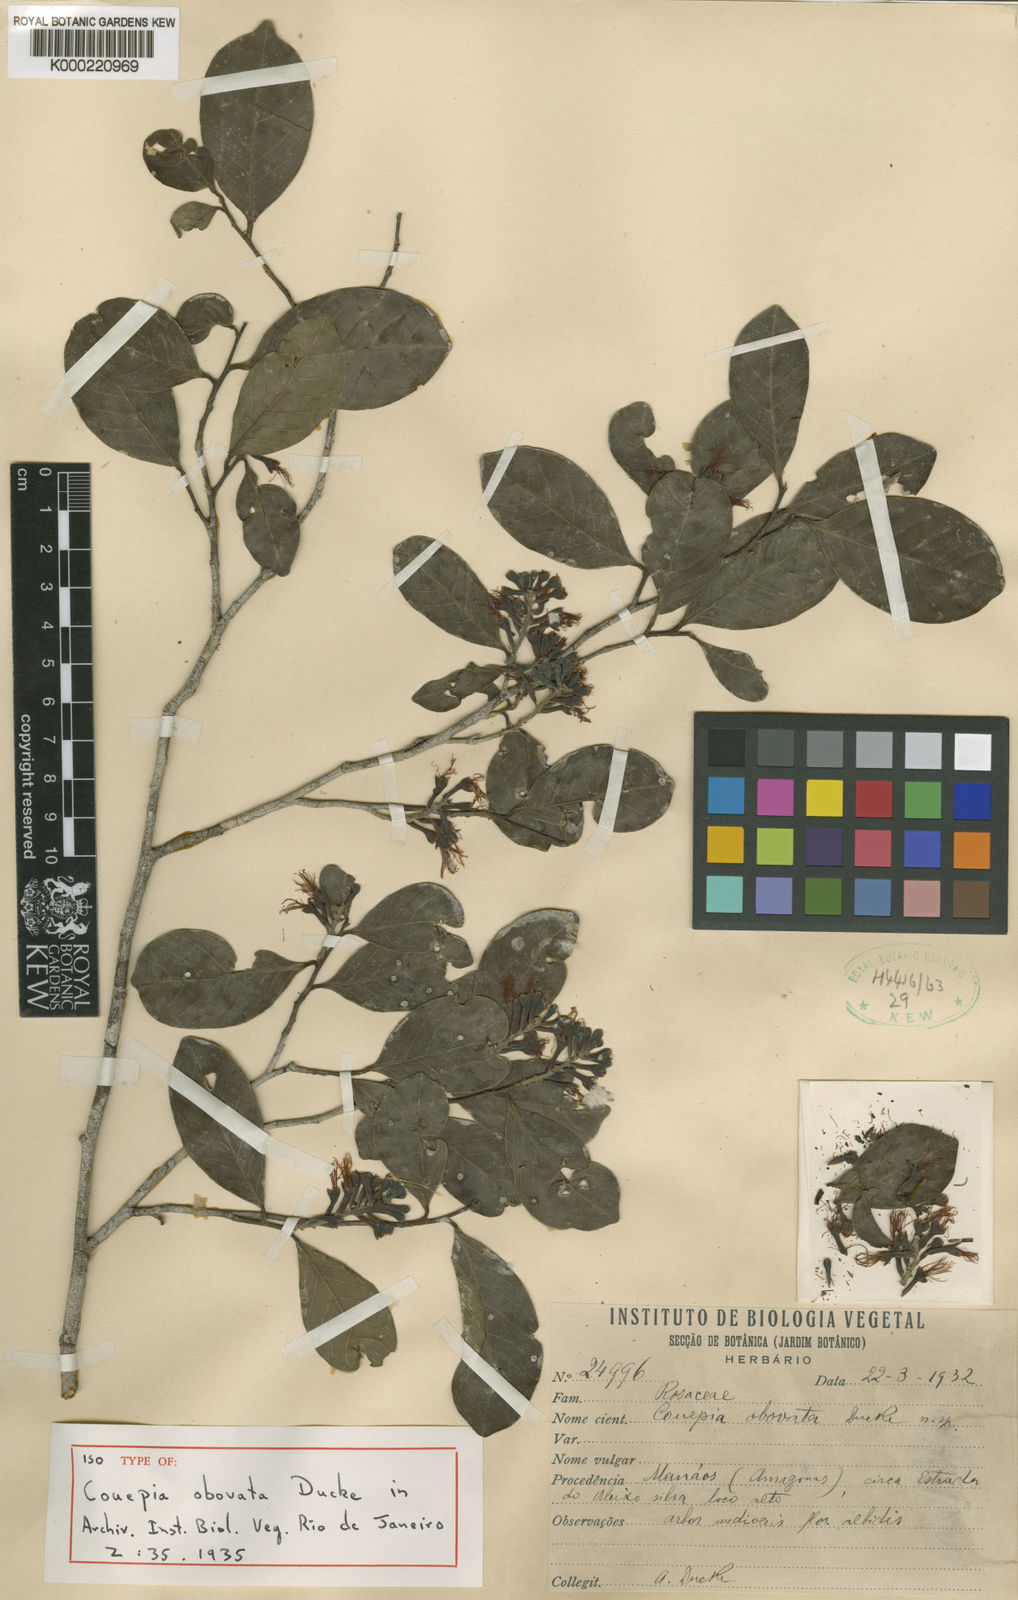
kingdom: Plantae
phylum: Tracheophyta
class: Magnoliopsida
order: Malpighiales
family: Chrysobalanaceae
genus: Couepia
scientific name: Couepia obovata
